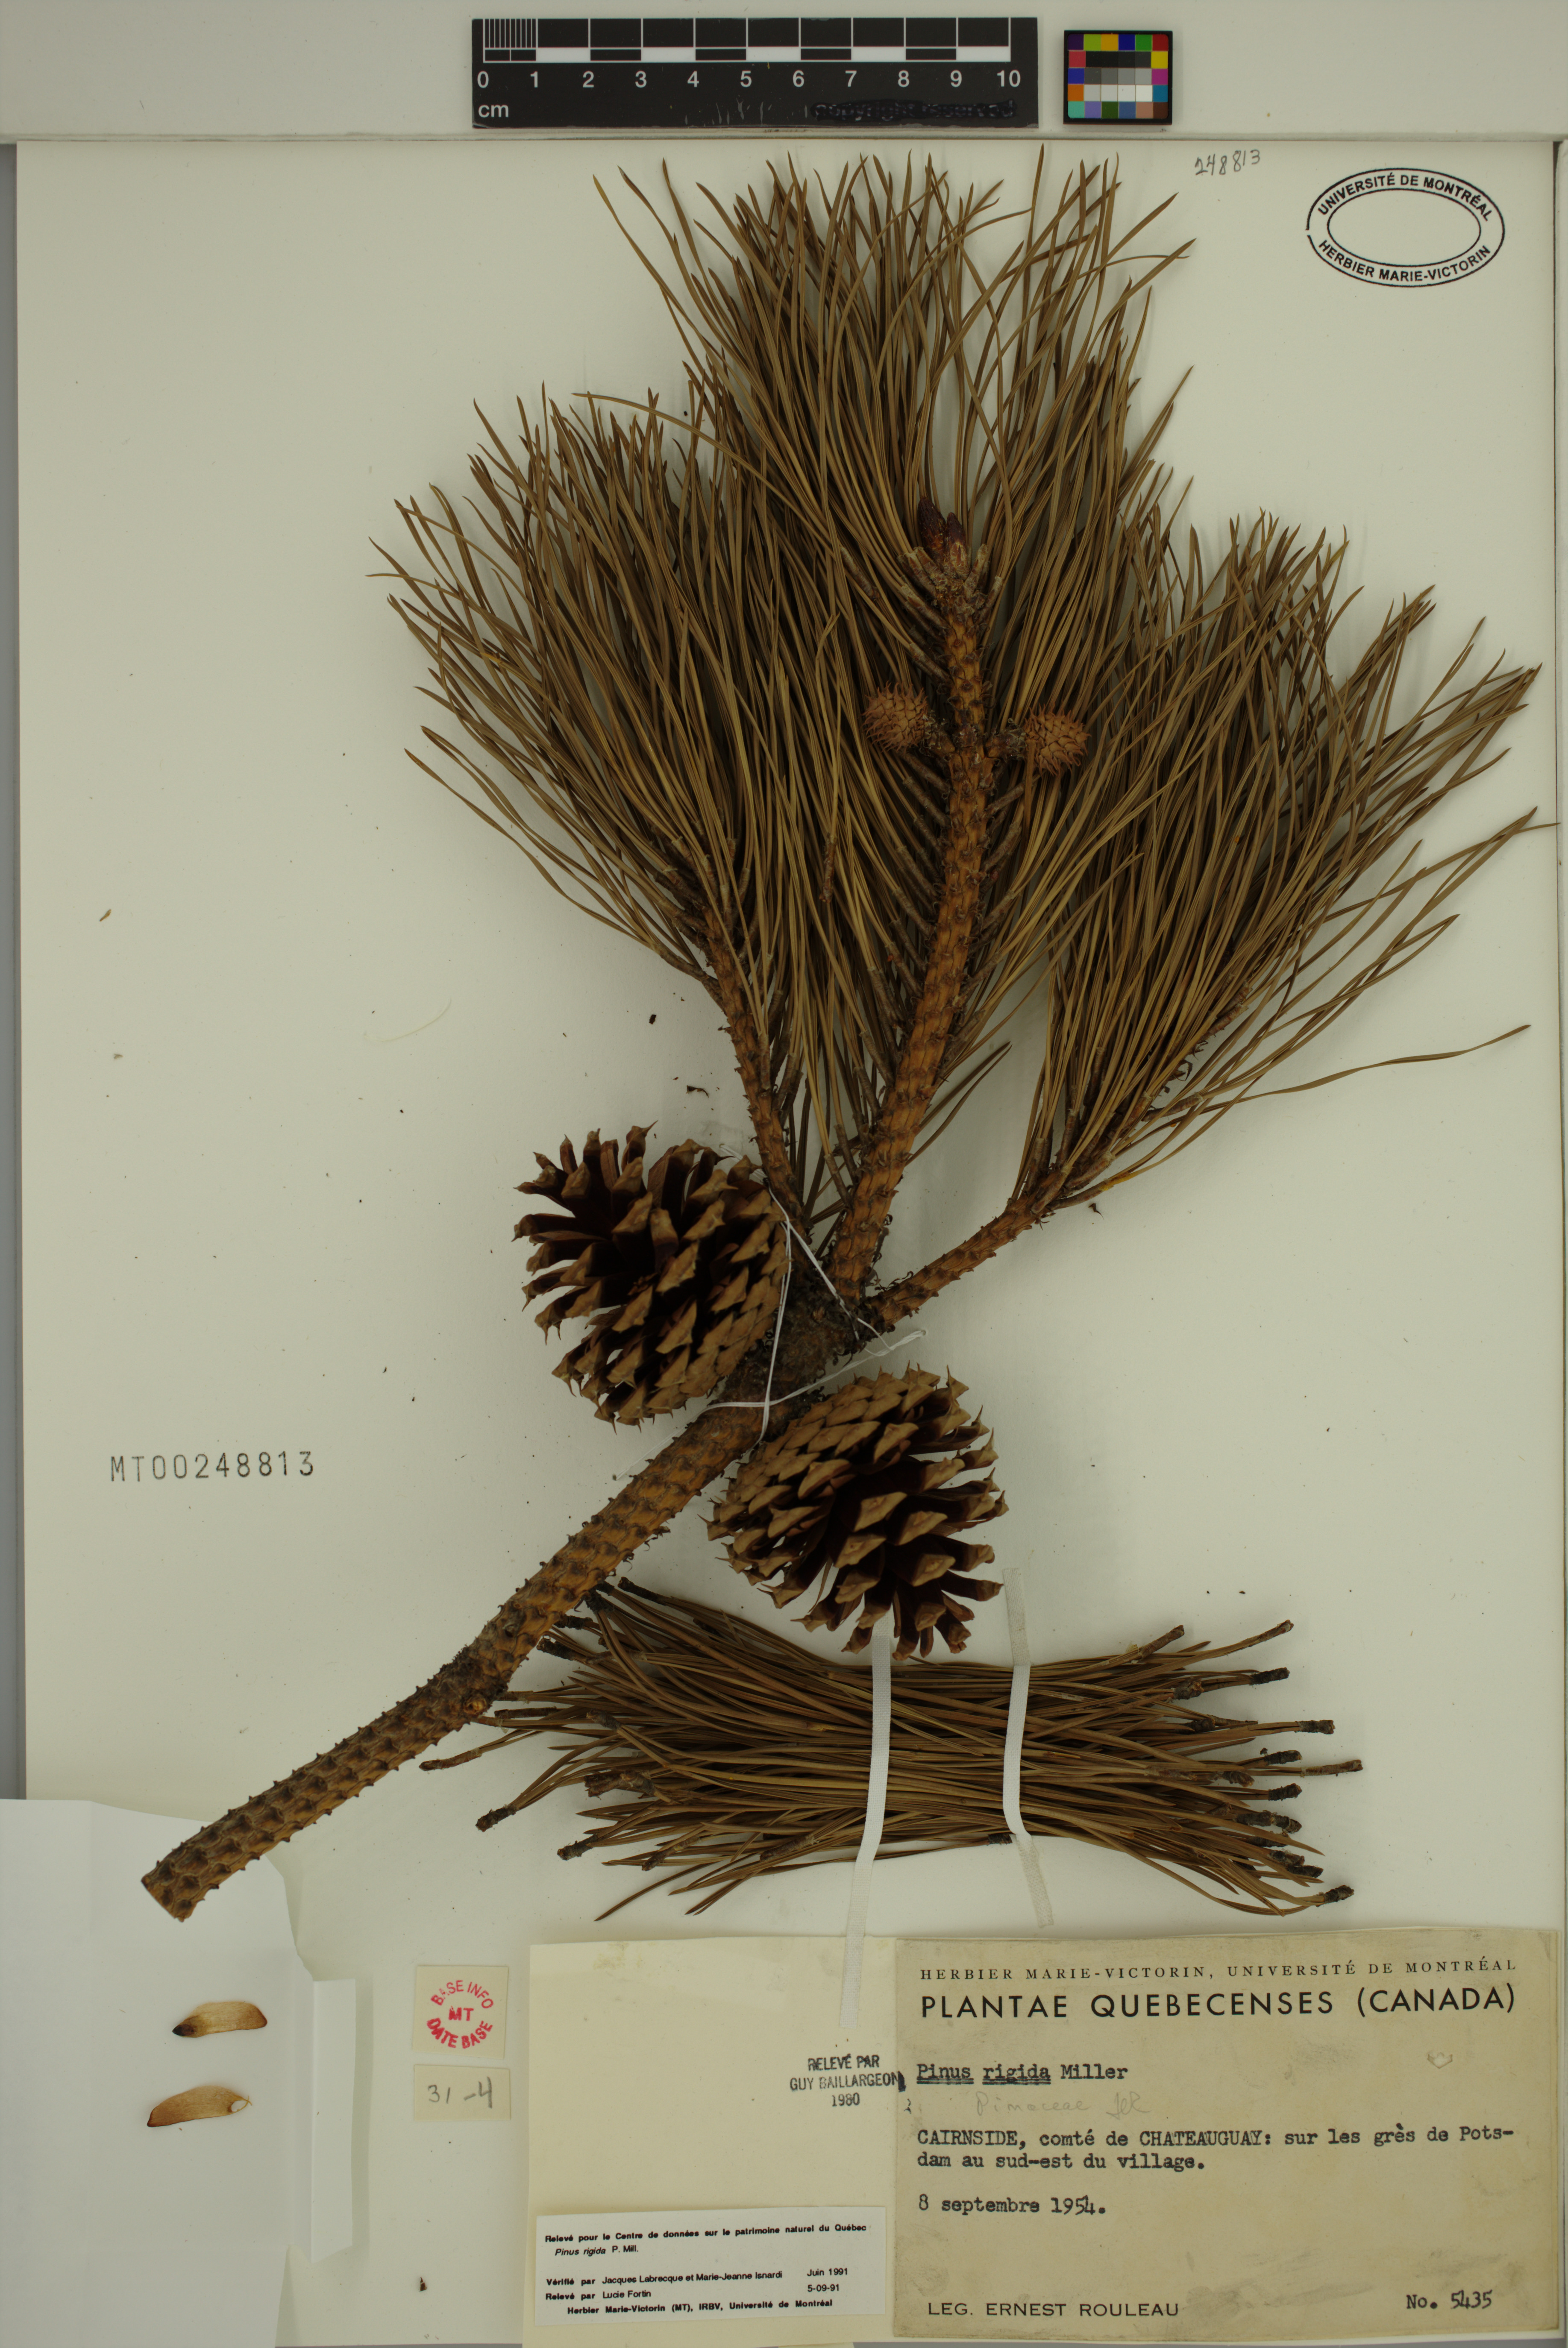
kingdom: Plantae
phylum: Tracheophyta
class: Pinopsida
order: Pinales
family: Pinaceae
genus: Pinus
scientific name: Pinus rigida
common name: Pitch pine
